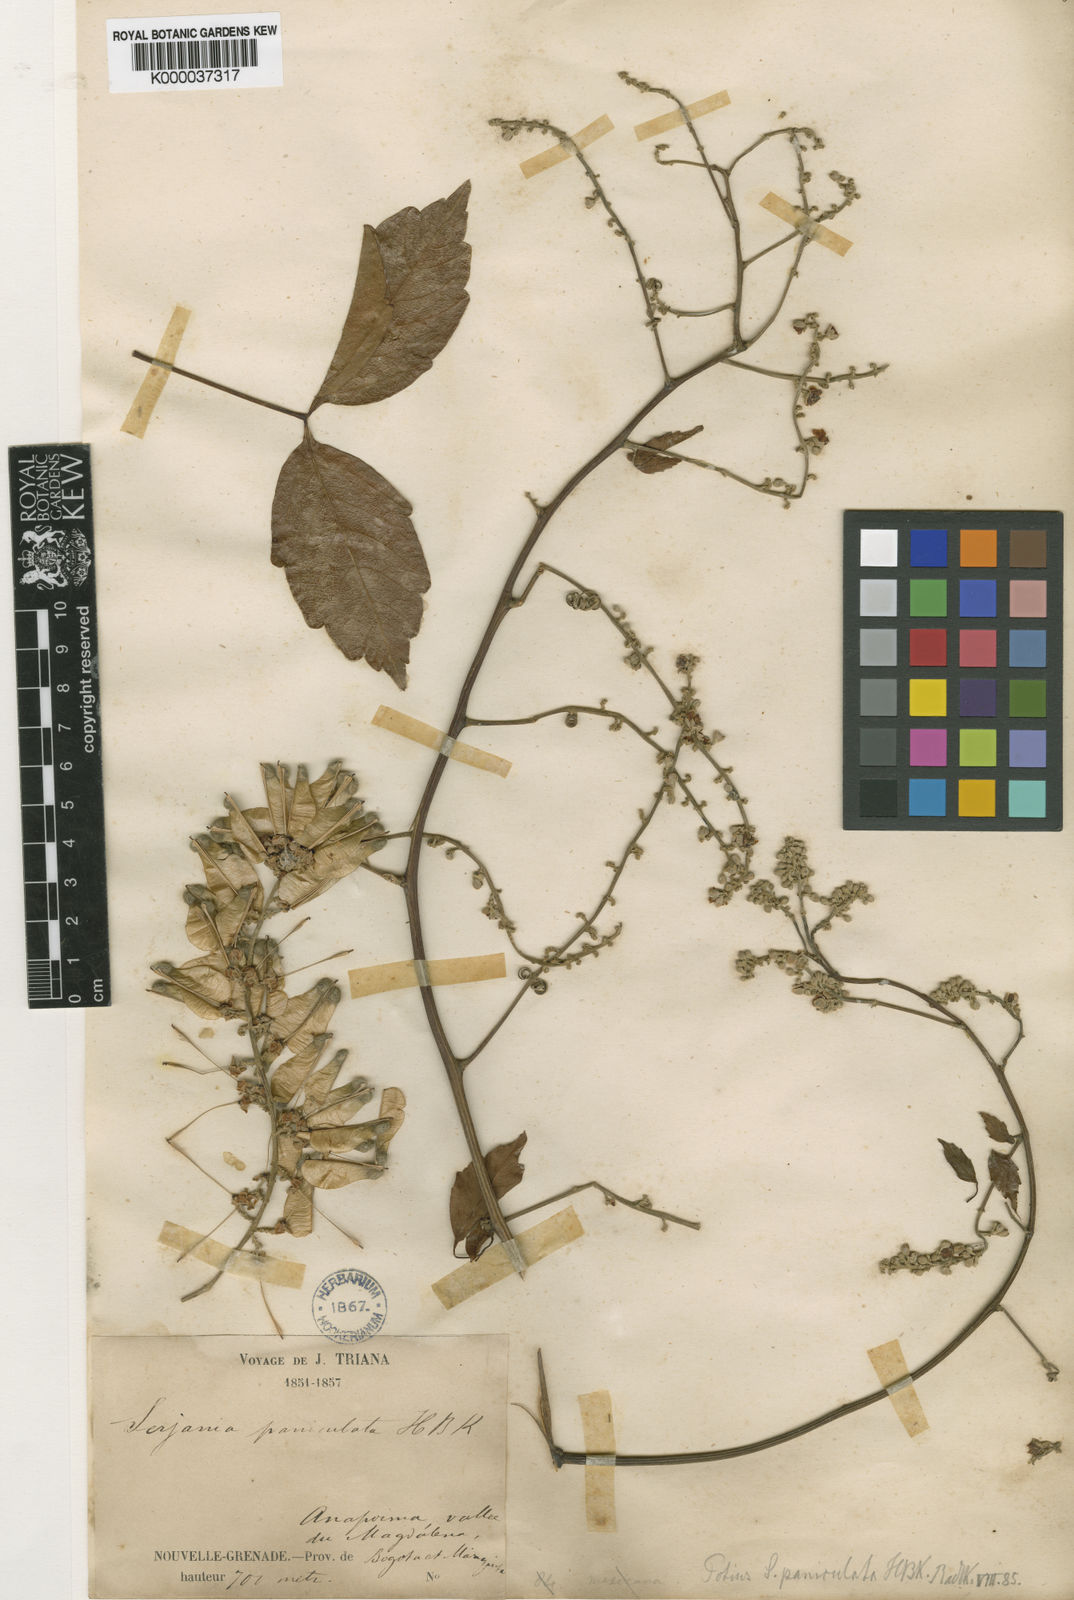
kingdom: Plantae
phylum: Tracheophyta
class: Magnoliopsida
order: Sapindales
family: Sapindaceae
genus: Serjania
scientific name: Serjania
